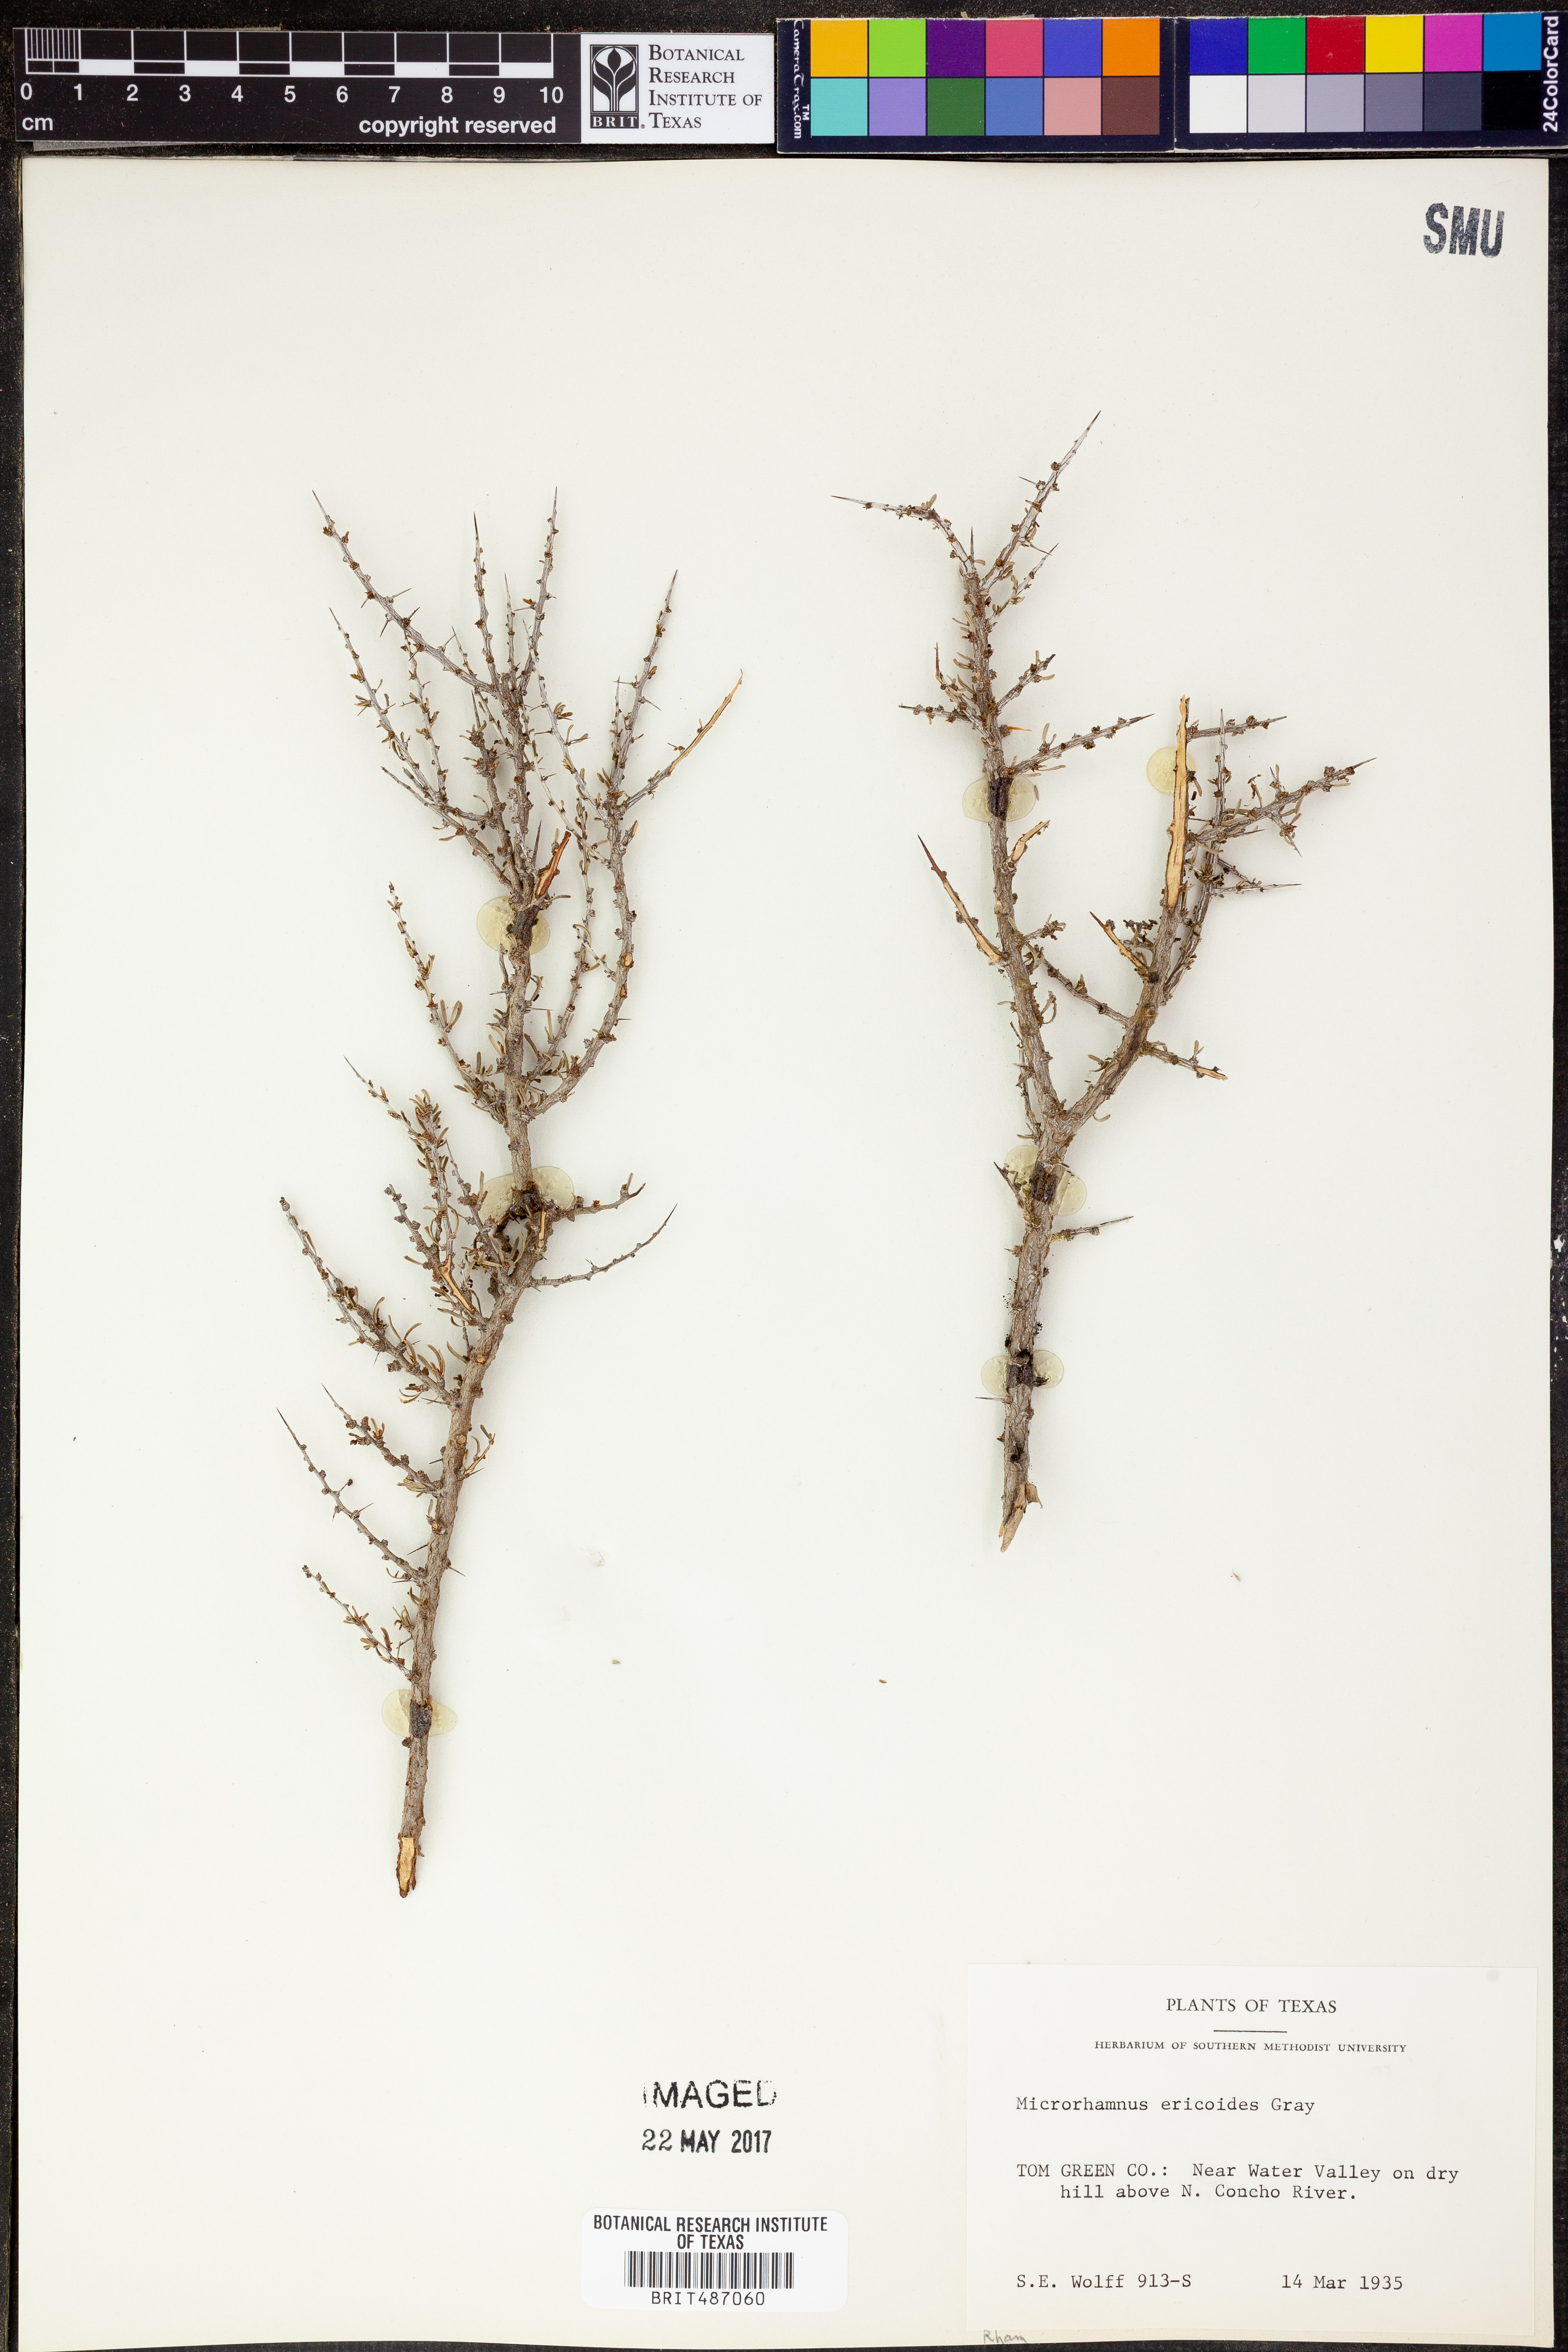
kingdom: Plantae
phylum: Tracheophyta
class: Magnoliopsida
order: Rosales
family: Rhamnaceae
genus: Condalia
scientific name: Condalia ericoides
